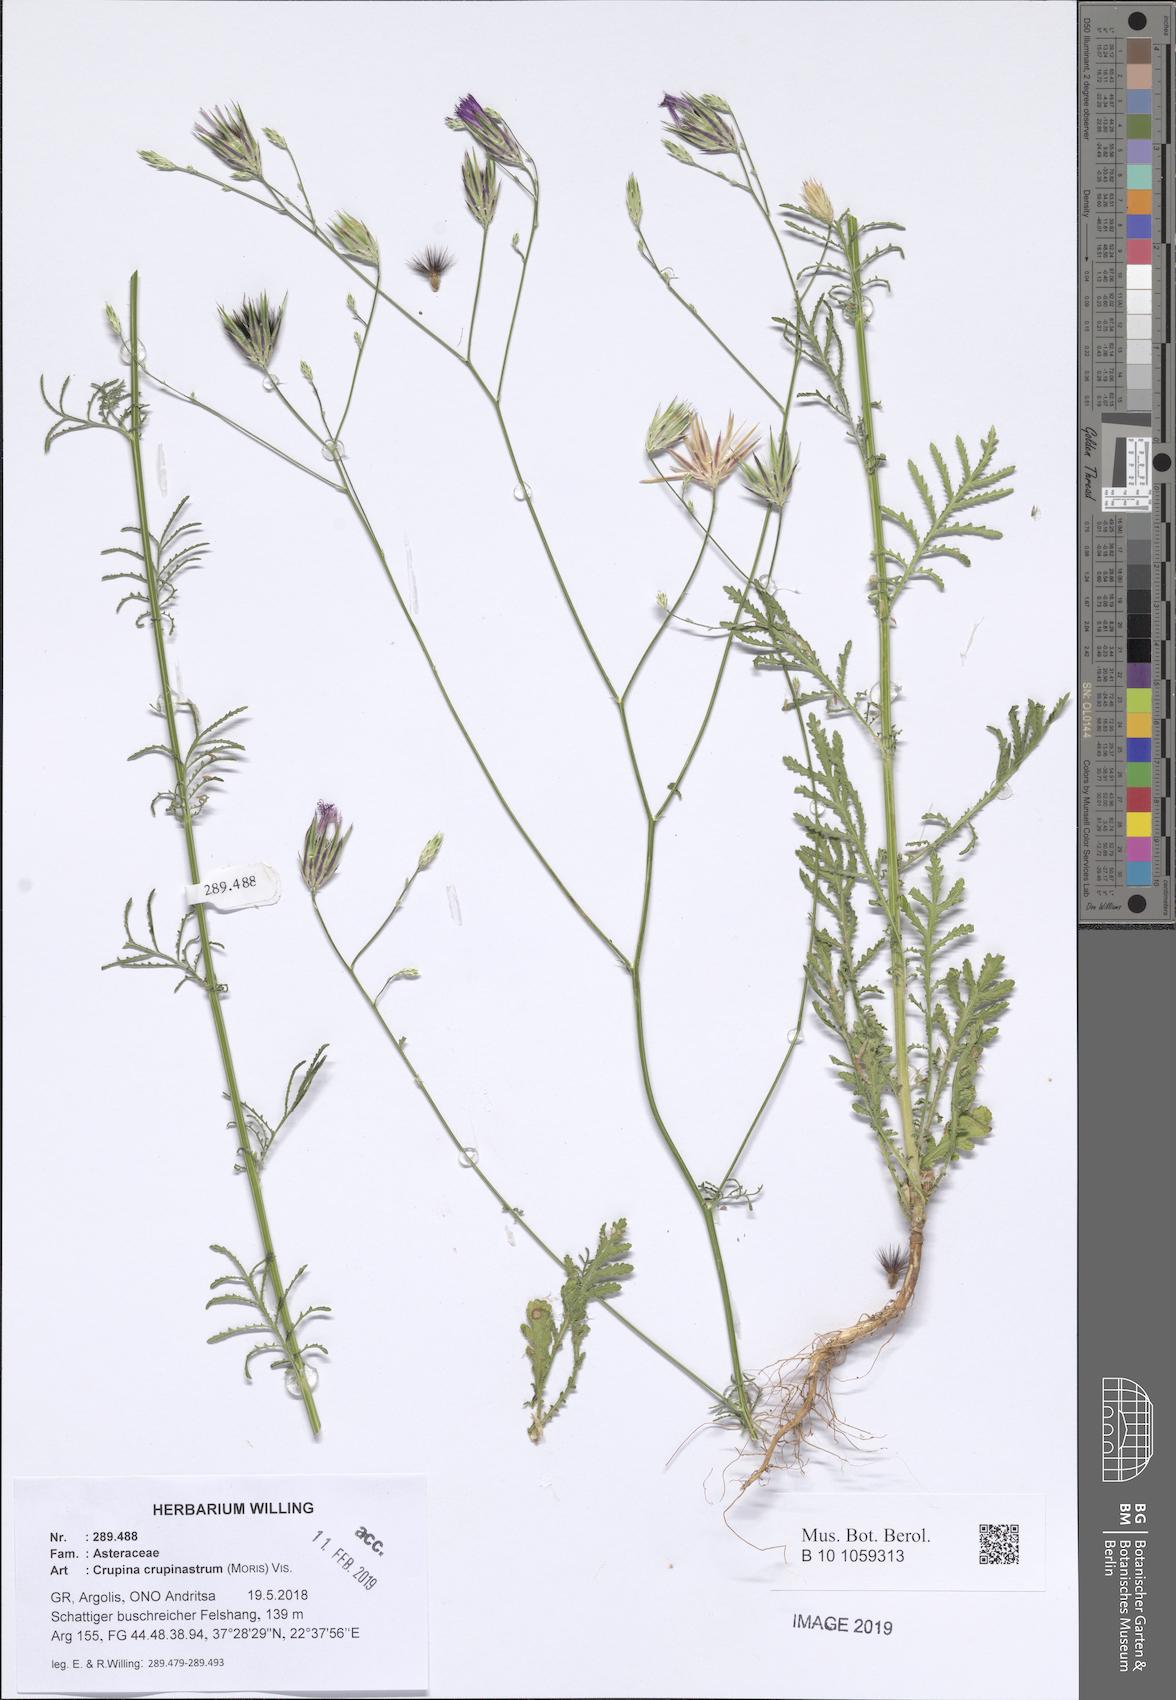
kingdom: Plantae
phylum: Tracheophyta
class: Magnoliopsida
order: Asterales
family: Asteraceae
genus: Crupina
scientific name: Crupina crupinastrum
